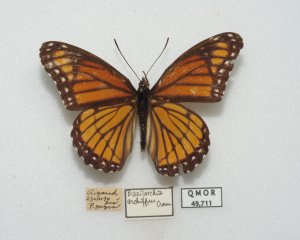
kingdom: Animalia
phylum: Arthropoda
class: Insecta
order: Lepidoptera
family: Nymphalidae
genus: Limenitis
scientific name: Limenitis archippus
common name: Viceroy
